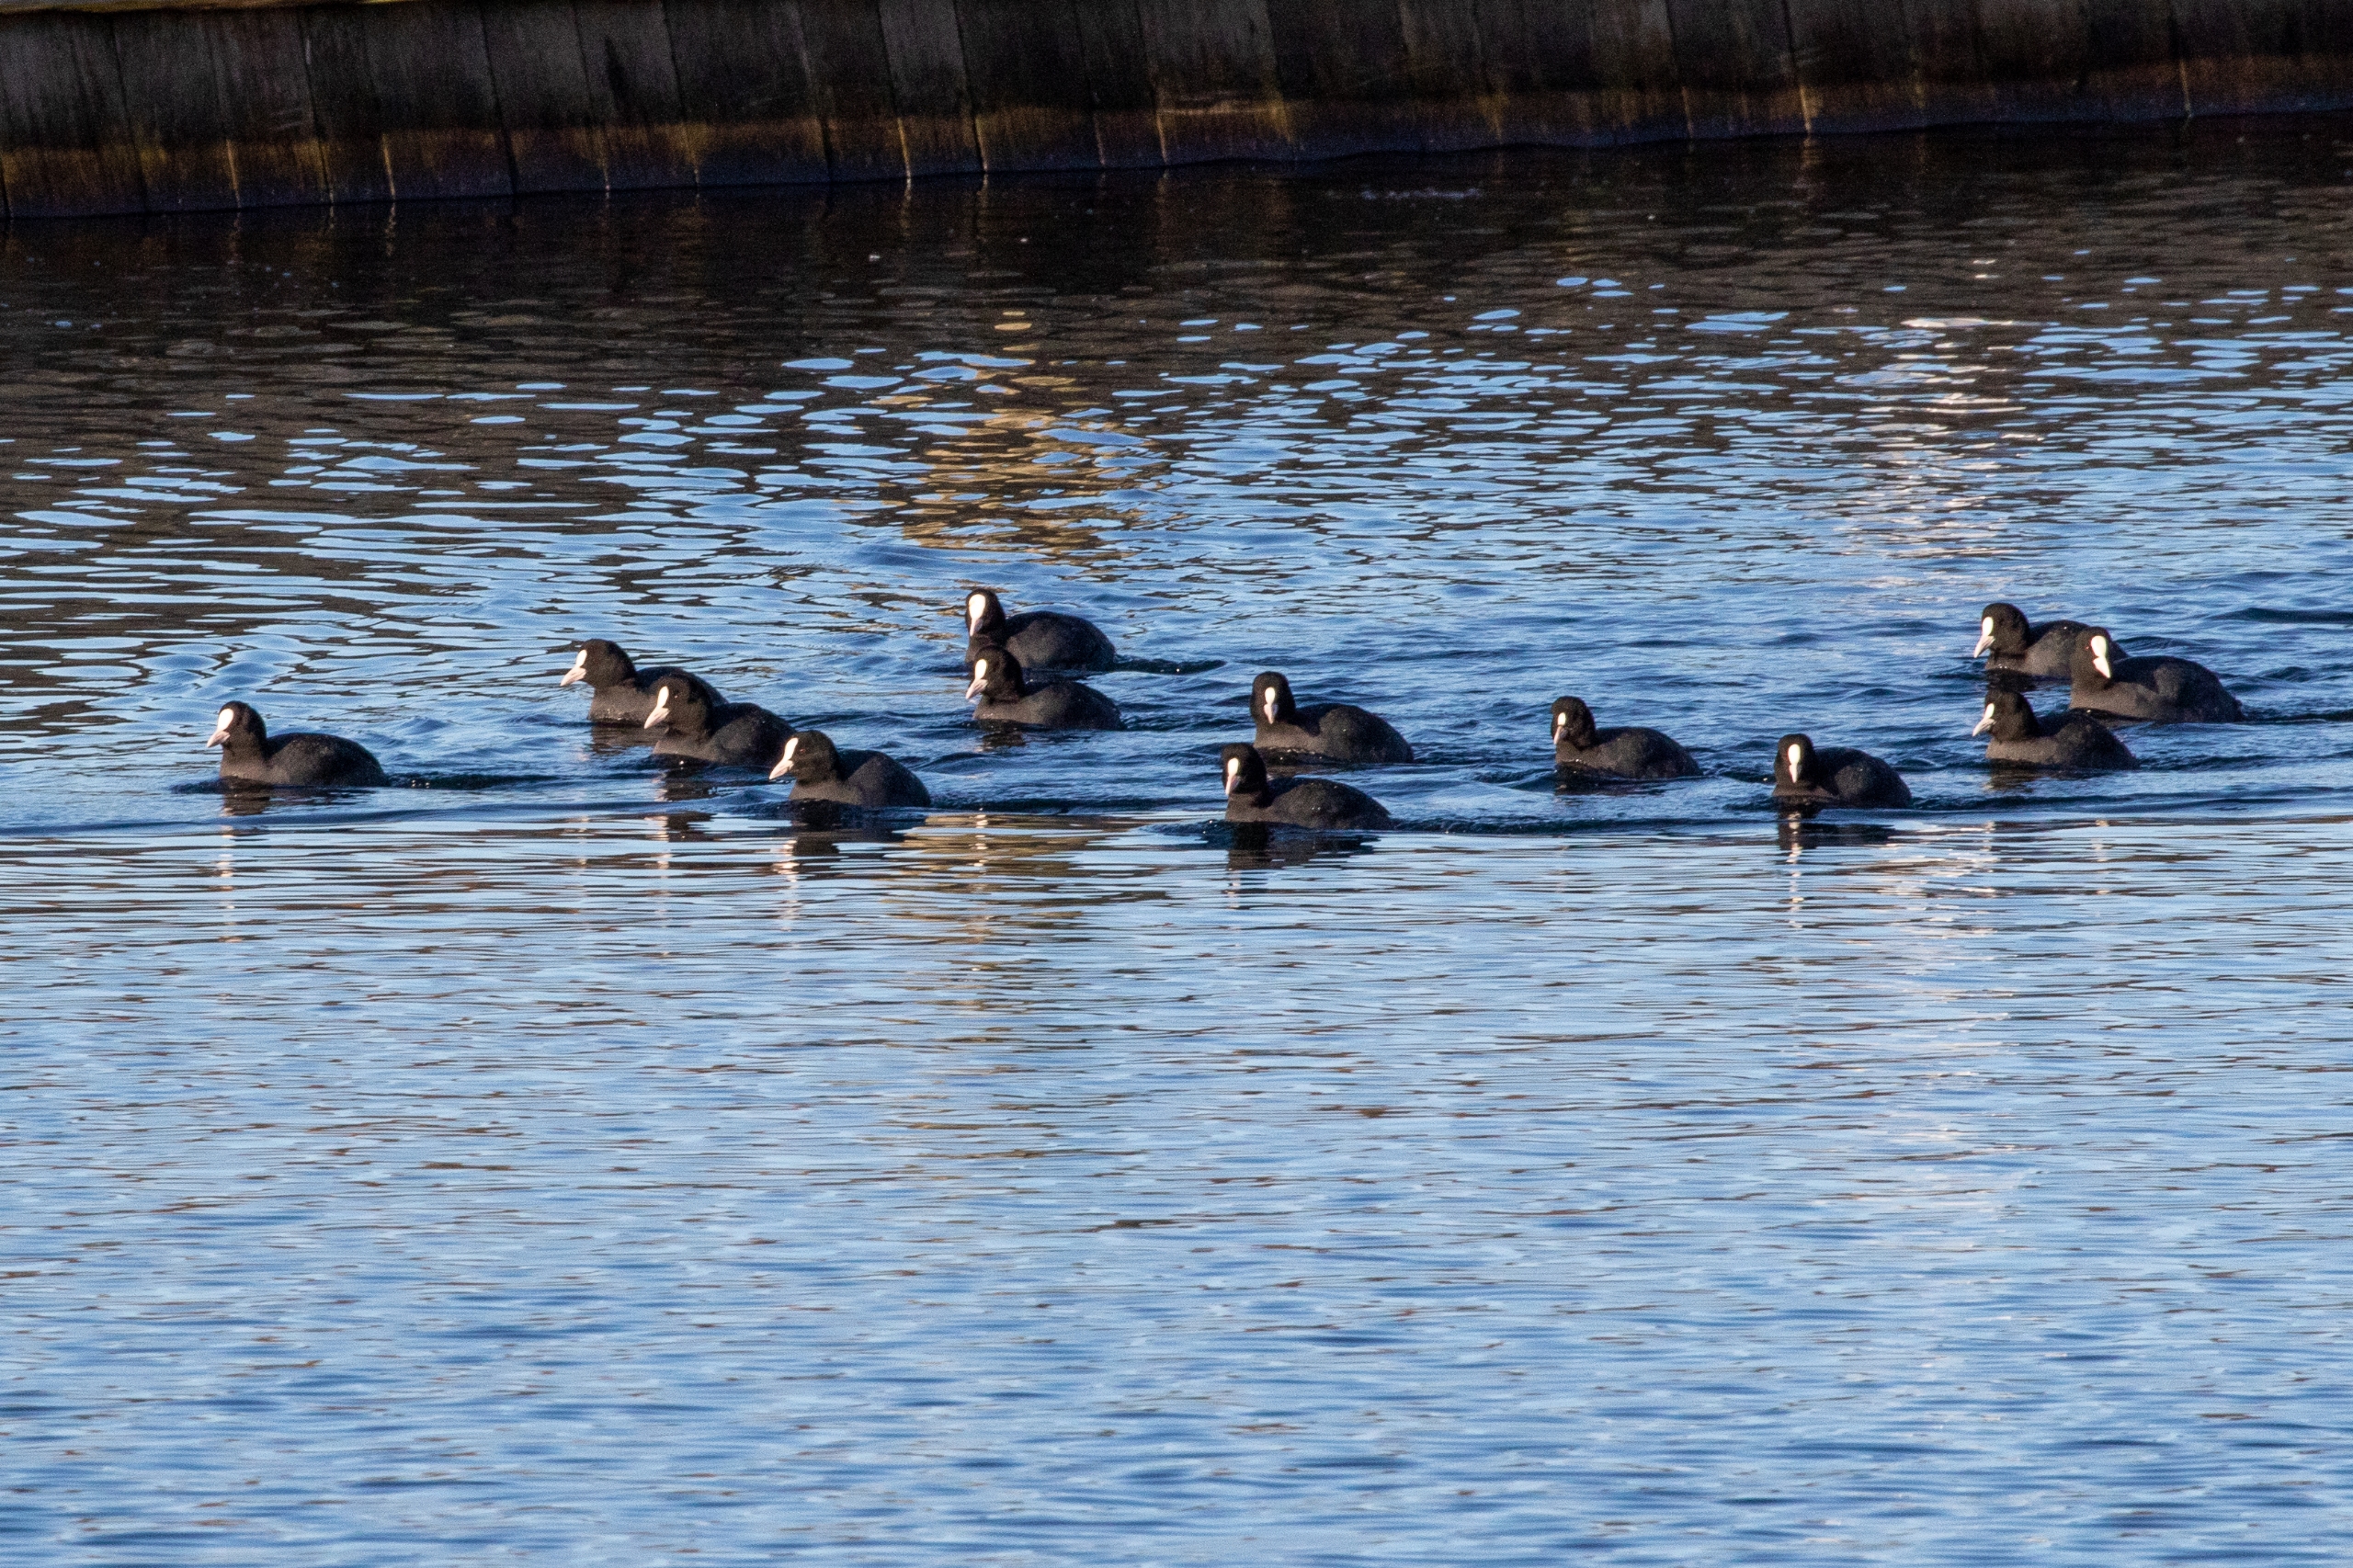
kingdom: Animalia
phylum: Chordata
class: Aves
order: Gruiformes
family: Rallidae
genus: Fulica
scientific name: Fulica atra
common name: Blishøne
